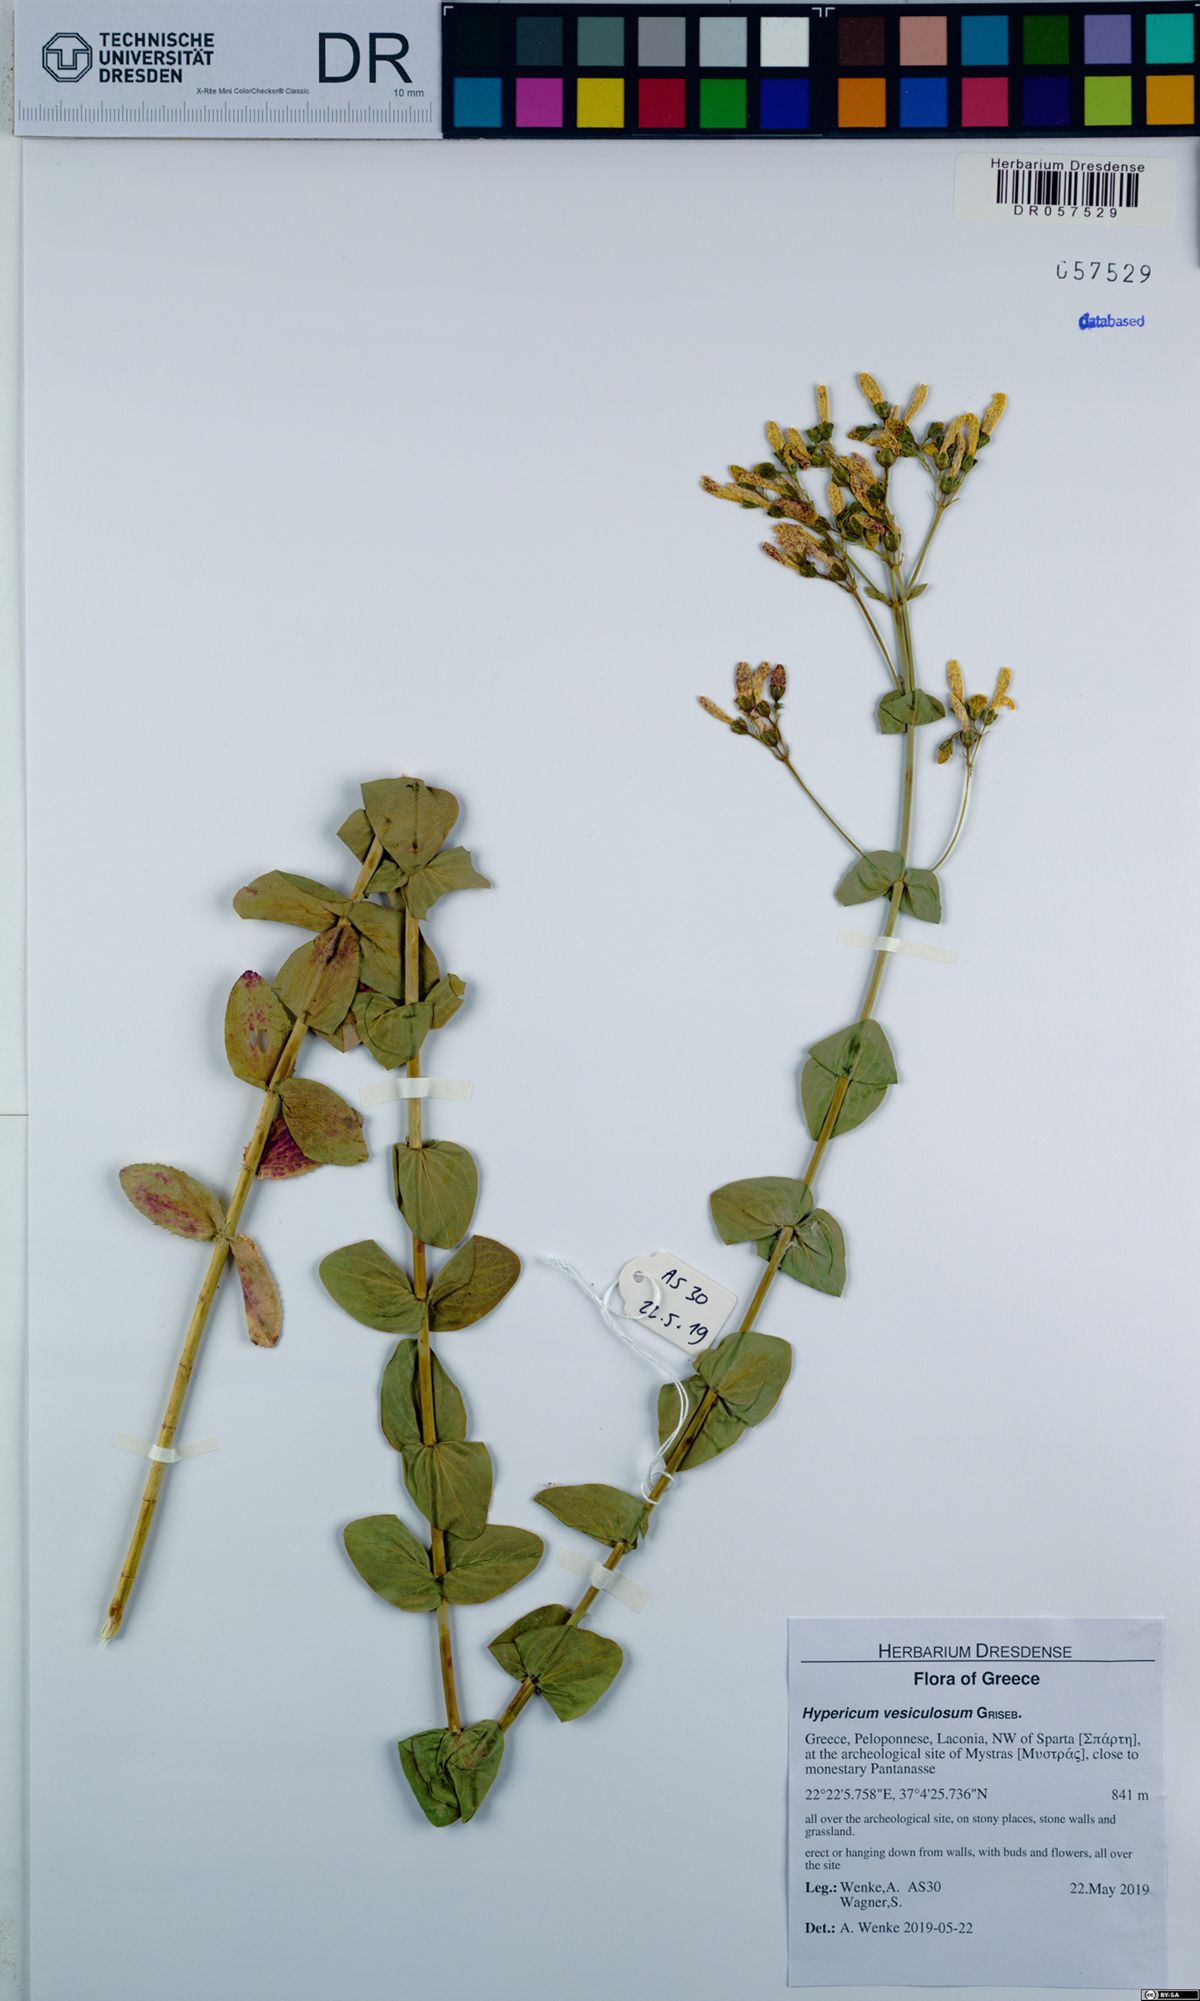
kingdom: Plantae
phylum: Tracheophyta
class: Magnoliopsida
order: Malpighiales
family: Hypericaceae
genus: Hypericum
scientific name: Hypericum vesiculosum
